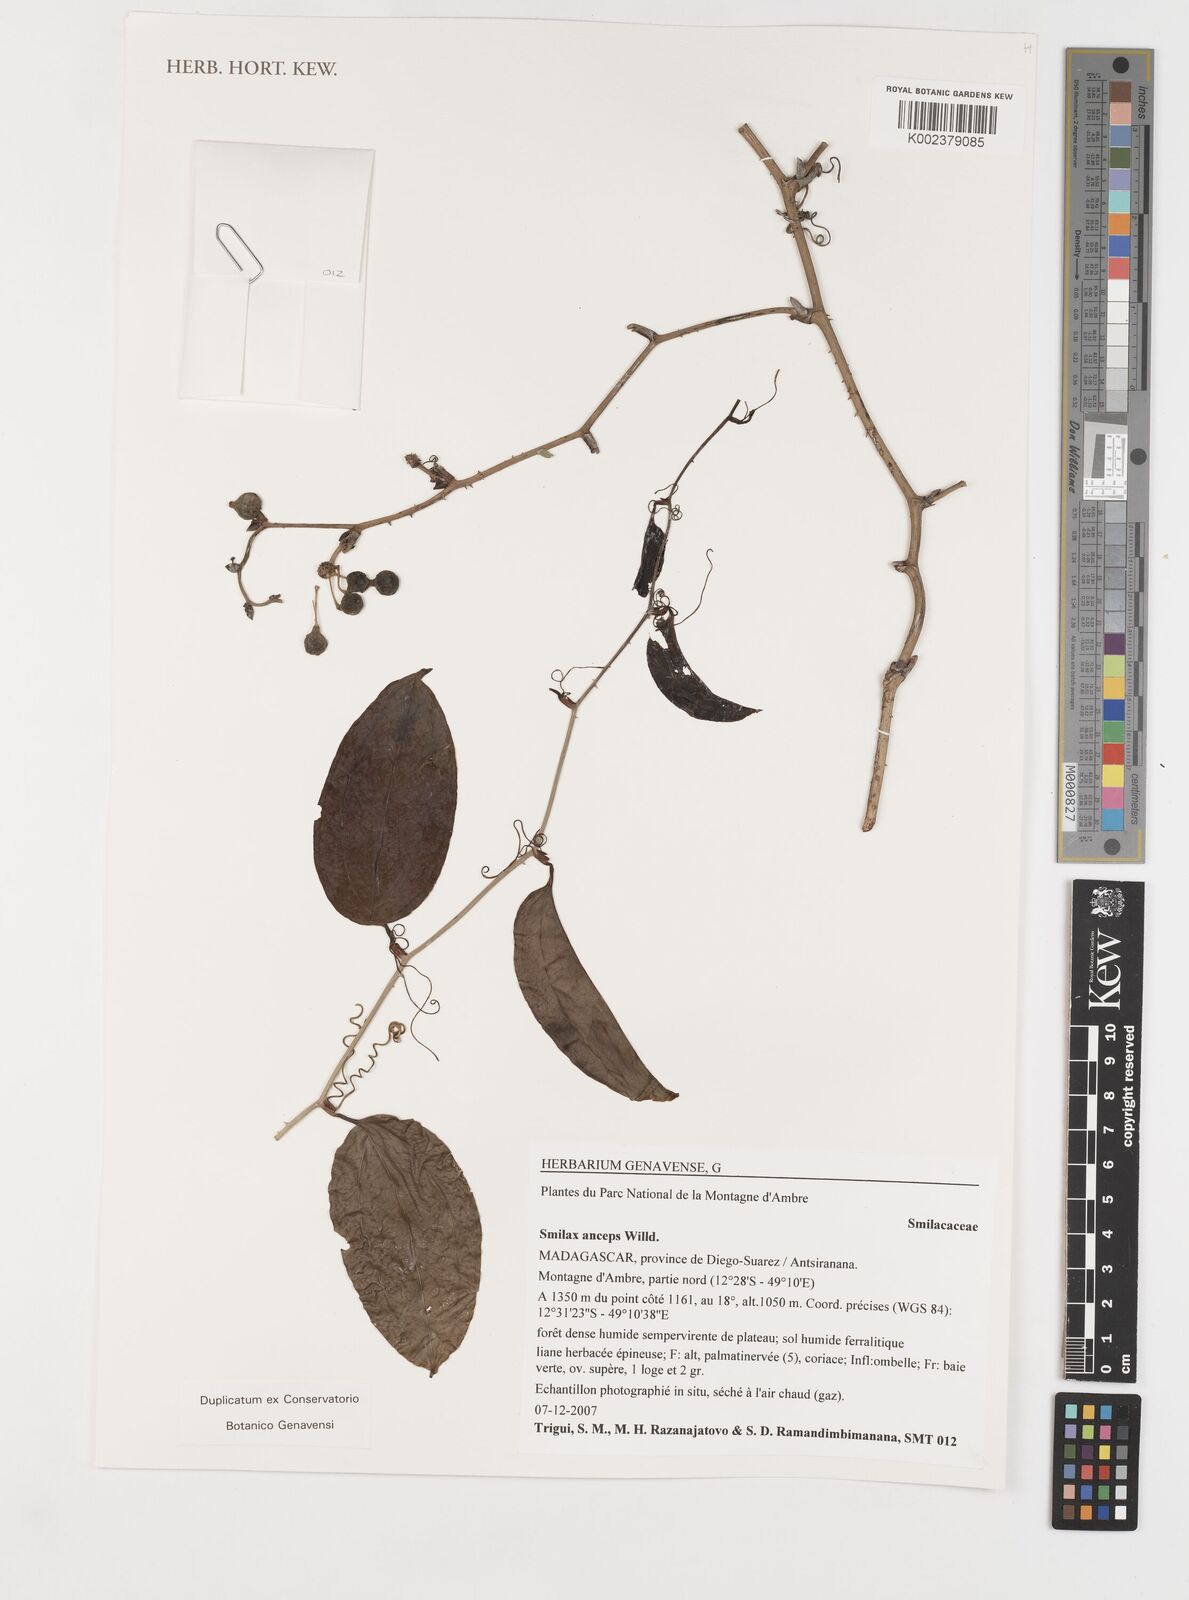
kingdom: Plantae
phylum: Tracheophyta
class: Liliopsida
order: Liliales
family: Smilacaceae
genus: Smilax
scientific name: Smilax anceps
